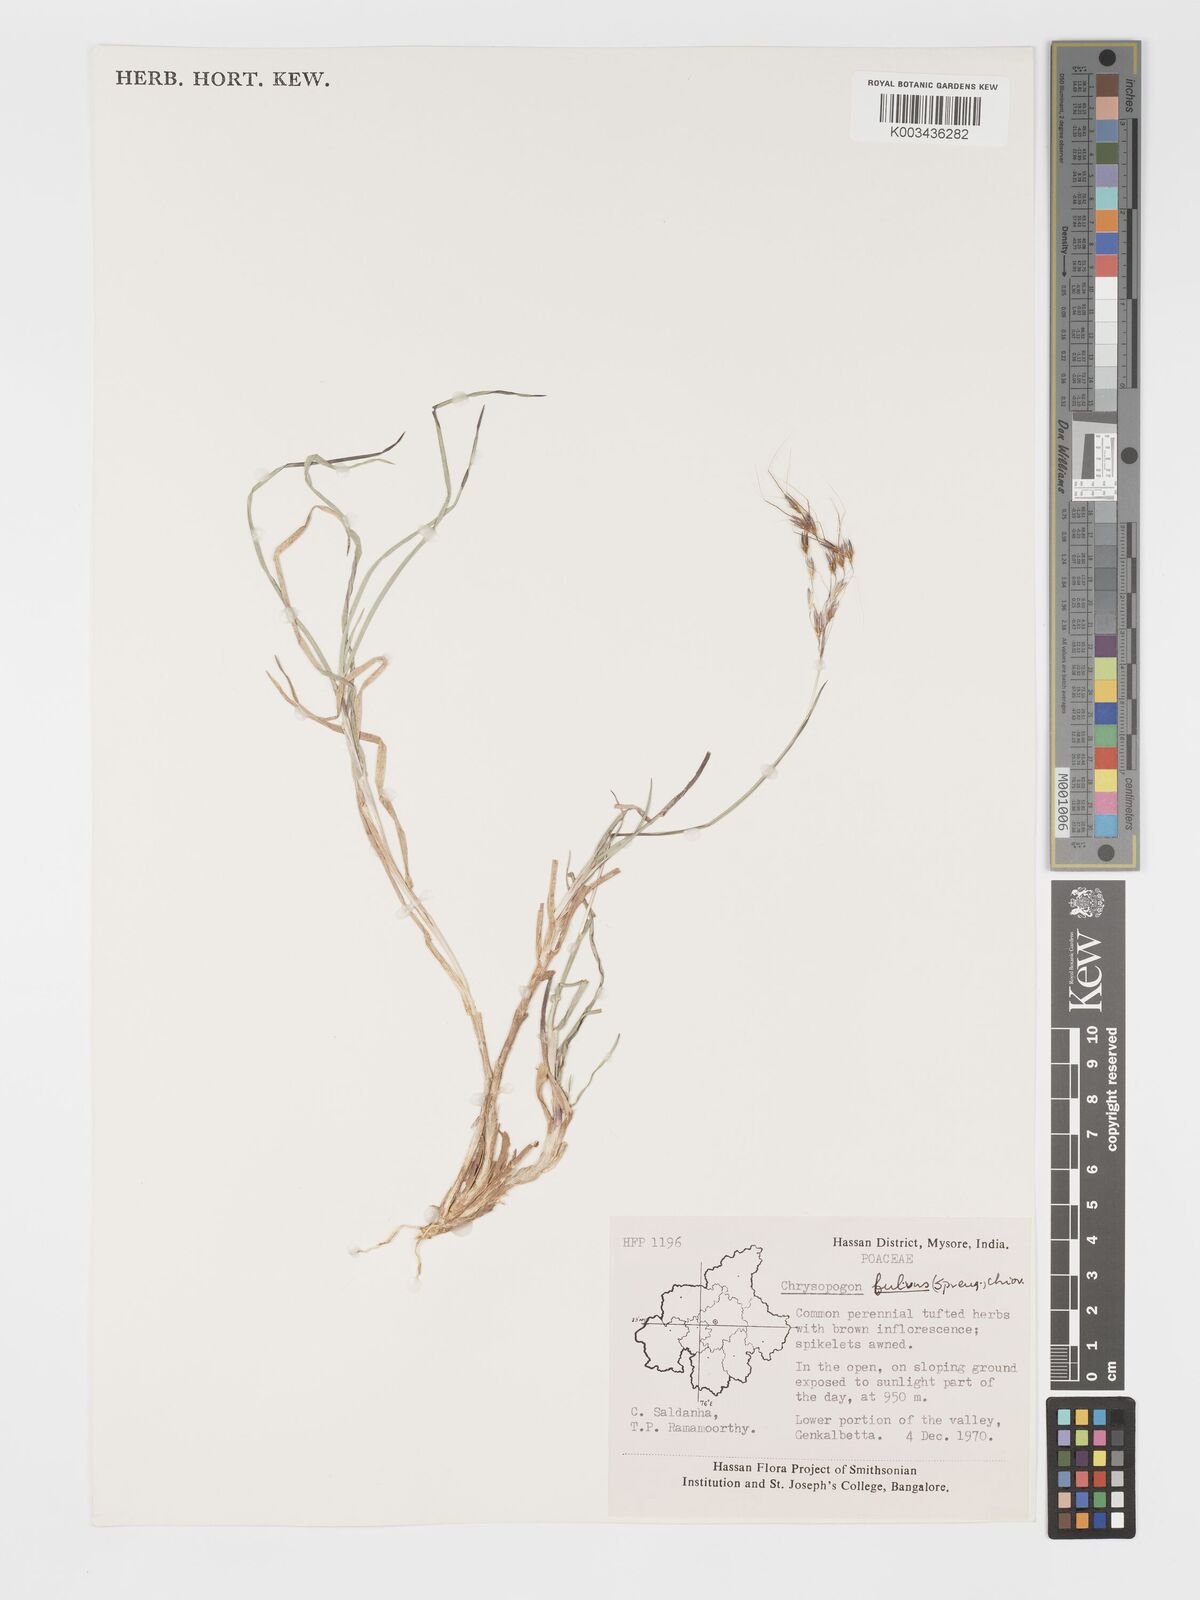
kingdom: Plantae
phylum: Tracheophyta
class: Liliopsida
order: Poales
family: Poaceae
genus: Chrysopogon
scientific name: Chrysopogon fulvus
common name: Red false beardgrass
